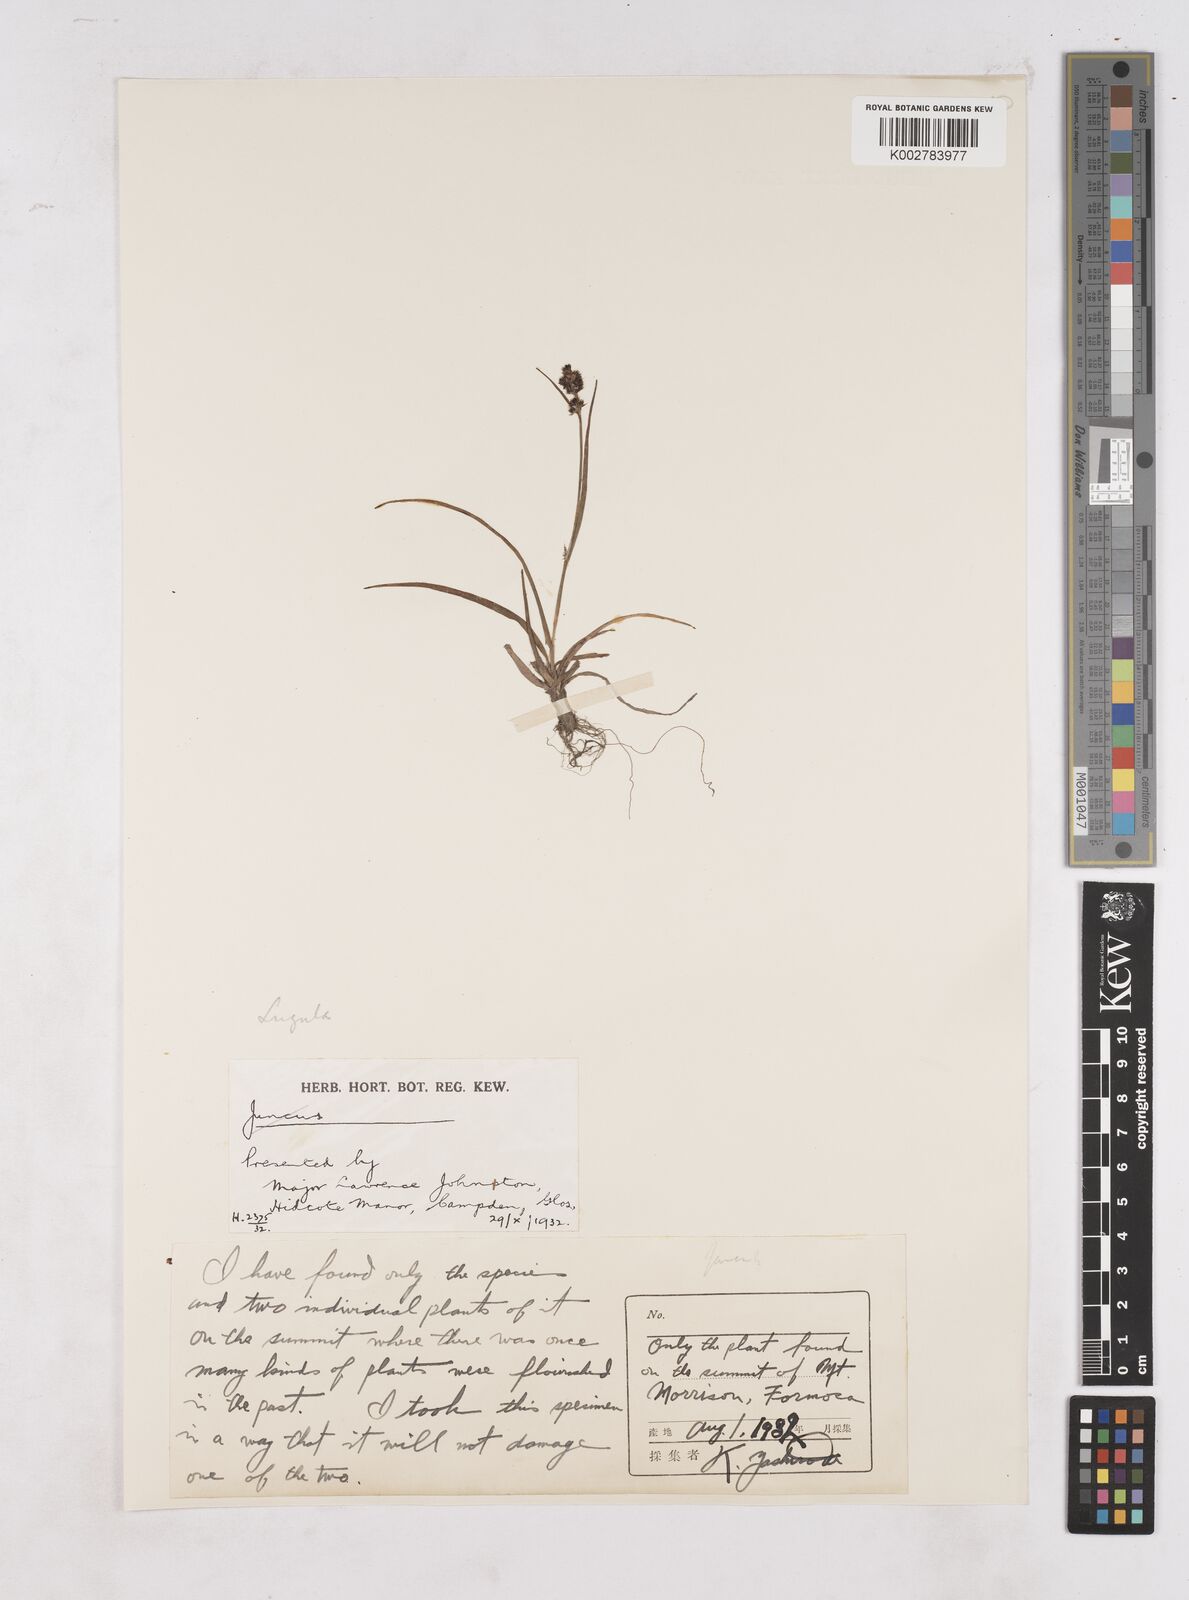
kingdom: Plantae
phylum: Tracheophyta
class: Liliopsida
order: Poales
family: Juncaceae
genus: Luzula
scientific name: Luzula campestris
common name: Field wood-rush
